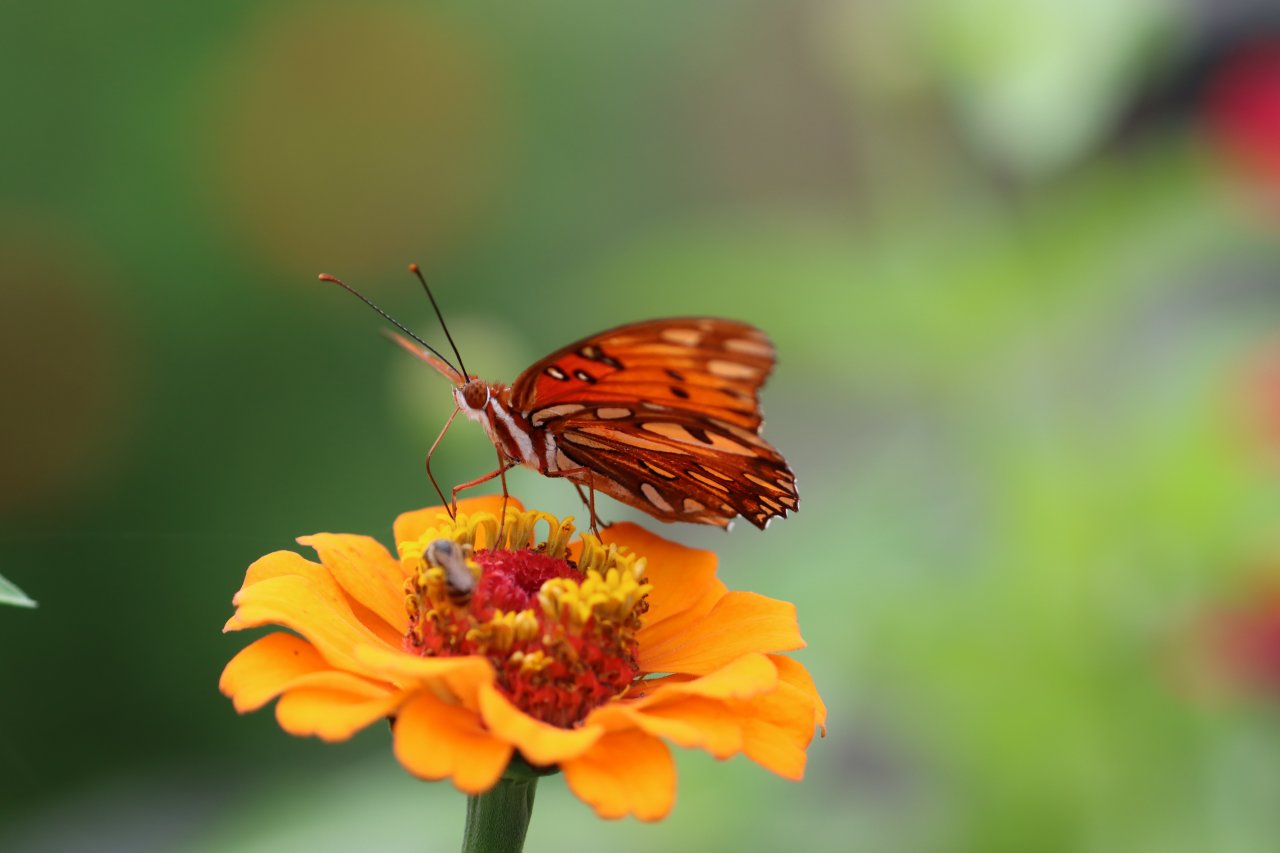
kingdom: Animalia
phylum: Arthropoda
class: Insecta
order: Lepidoptera
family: Nymphalidae
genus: Dione
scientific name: Dione vanillae
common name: Gulf Fritillary
